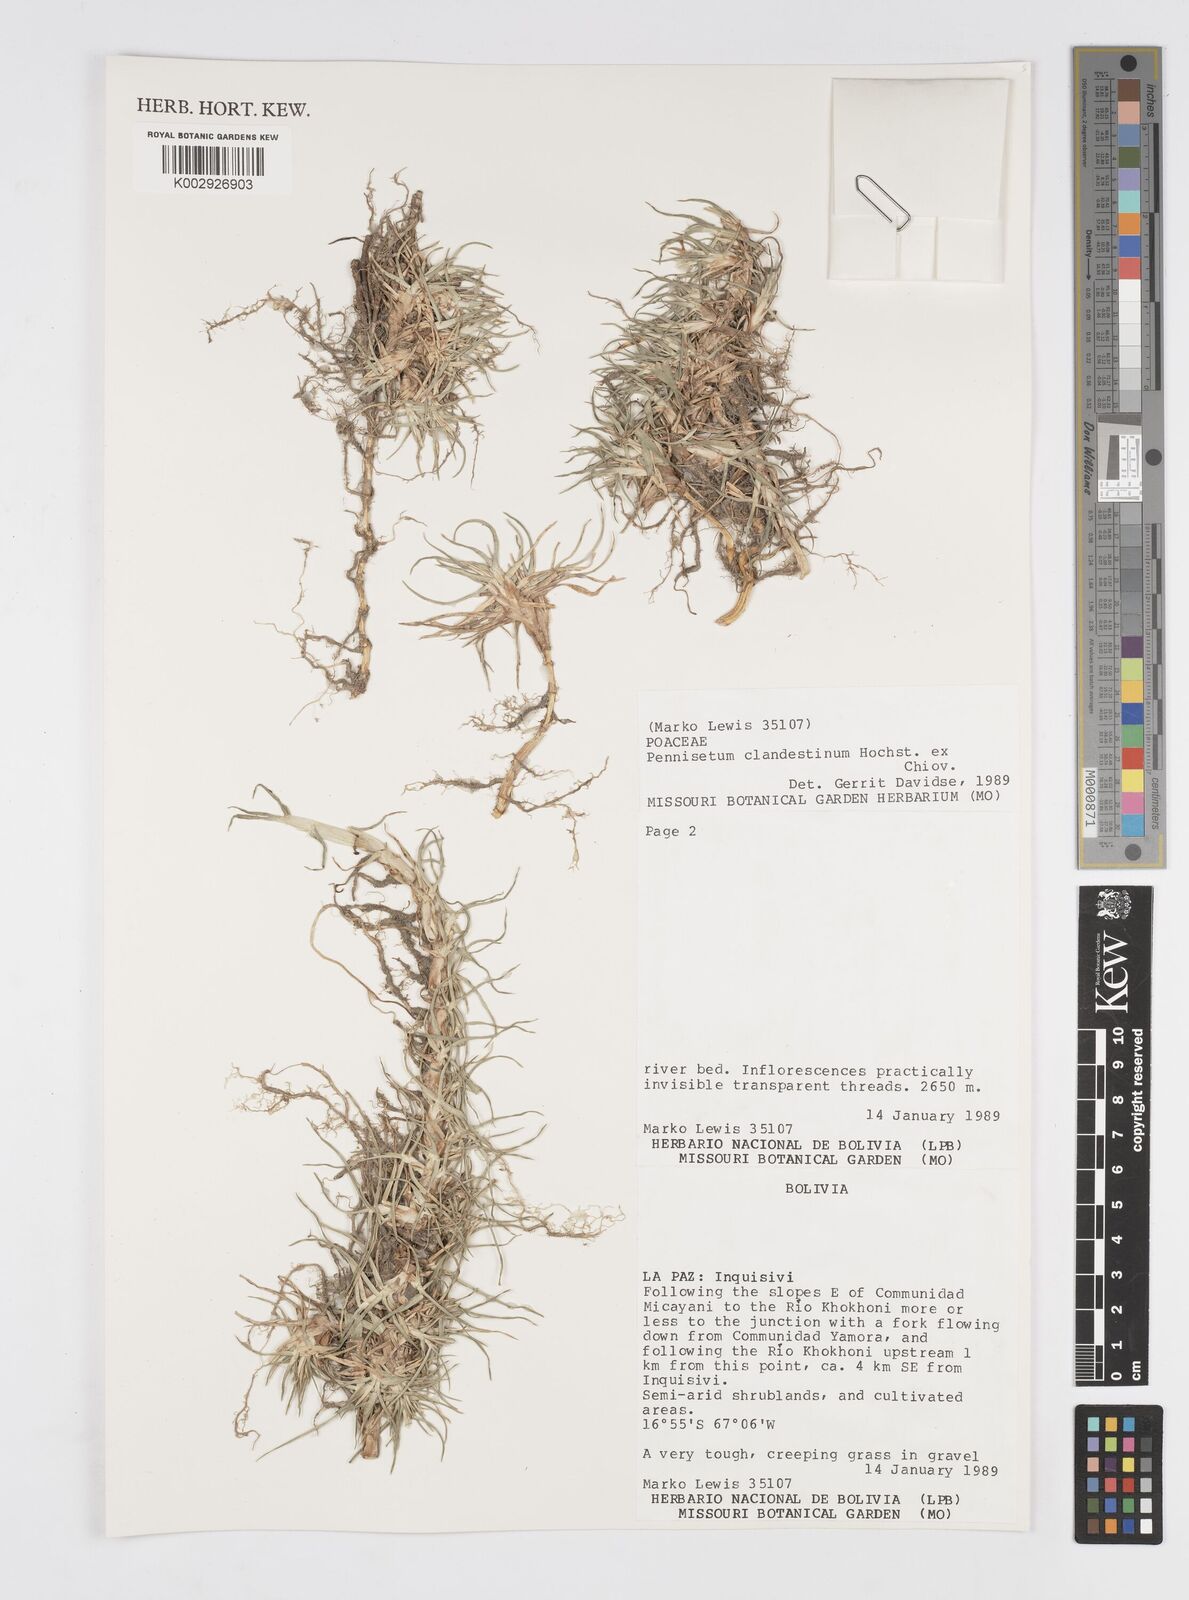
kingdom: Plantae
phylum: Tracheophyta
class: Liliopsida
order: Poales
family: Poaceae
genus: Cenchrus
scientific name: Cenchrus clandestinus
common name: Kikuyugrass
